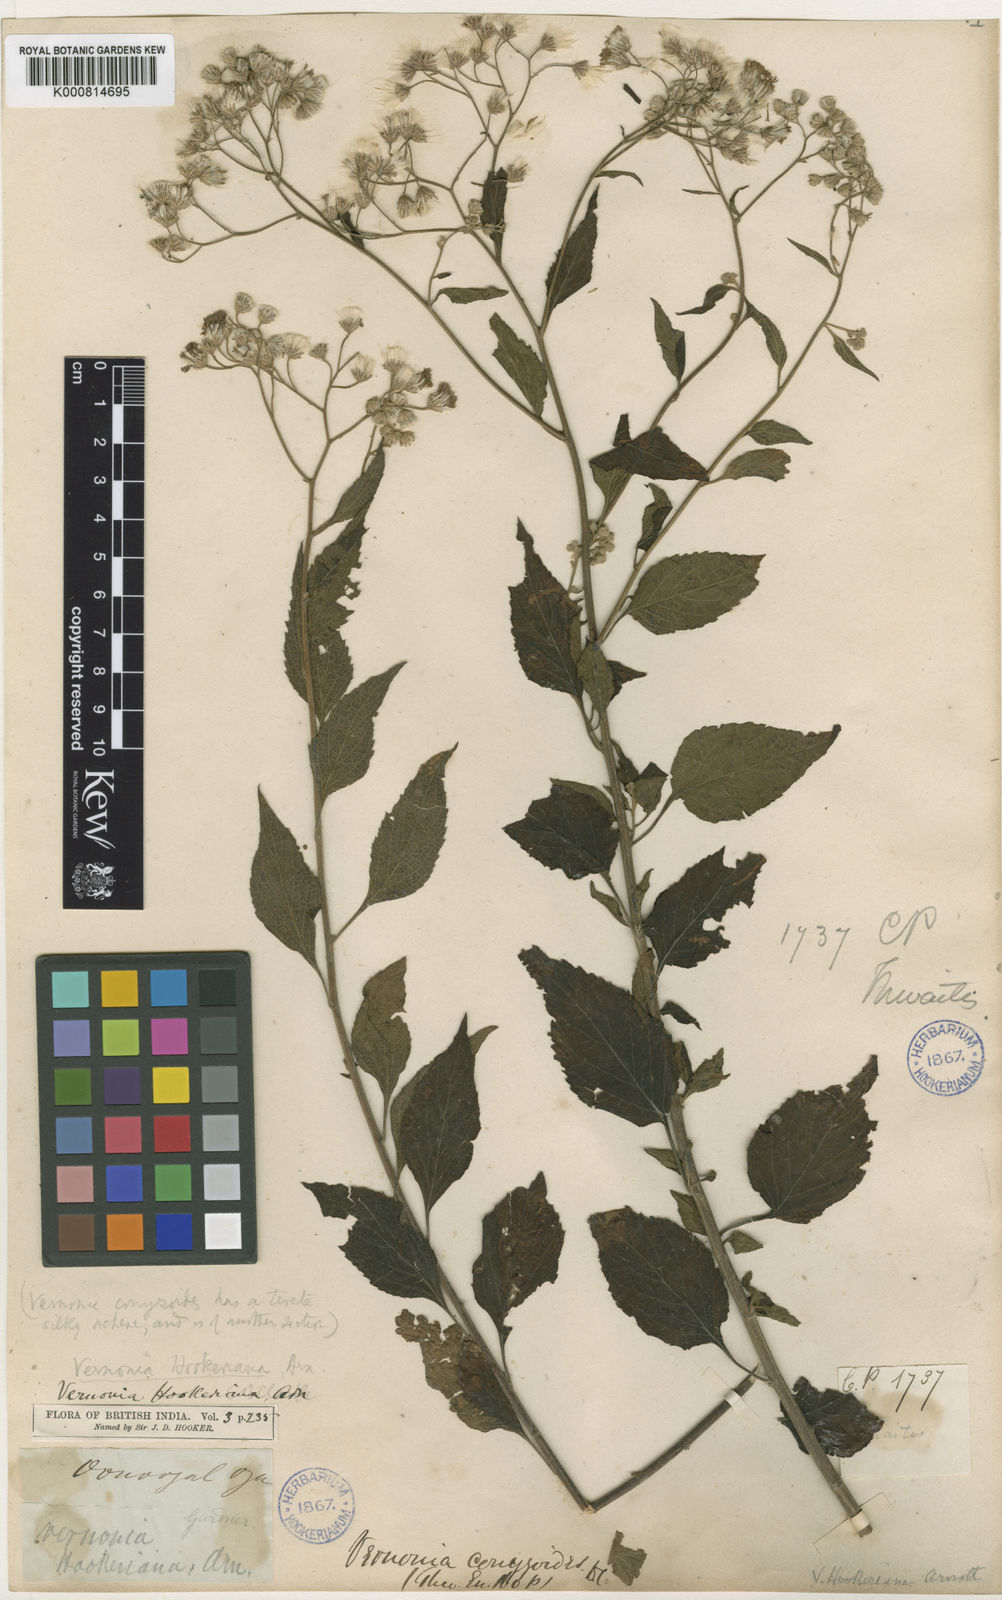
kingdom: Plantae
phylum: Tracheophyta
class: Magnoliopsida
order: Asterales
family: Asteraceae
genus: Cyanthillium
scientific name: Cyanthillium hookerianum
